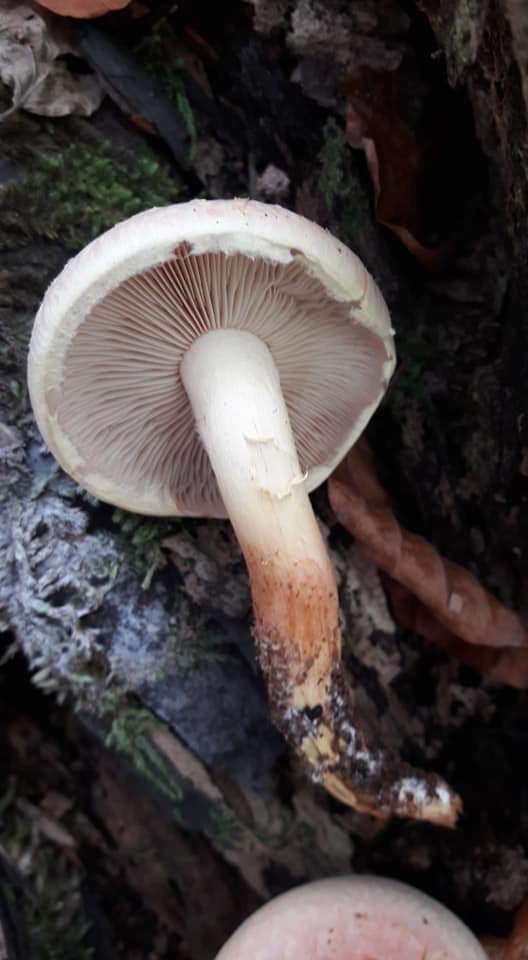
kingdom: Fungi
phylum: Basidiomycota
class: Agaricomycetes
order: Agaricales
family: Strophariaceae
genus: Hypholoma
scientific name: Hypholoma lateritium
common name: teglrød svovlhat
